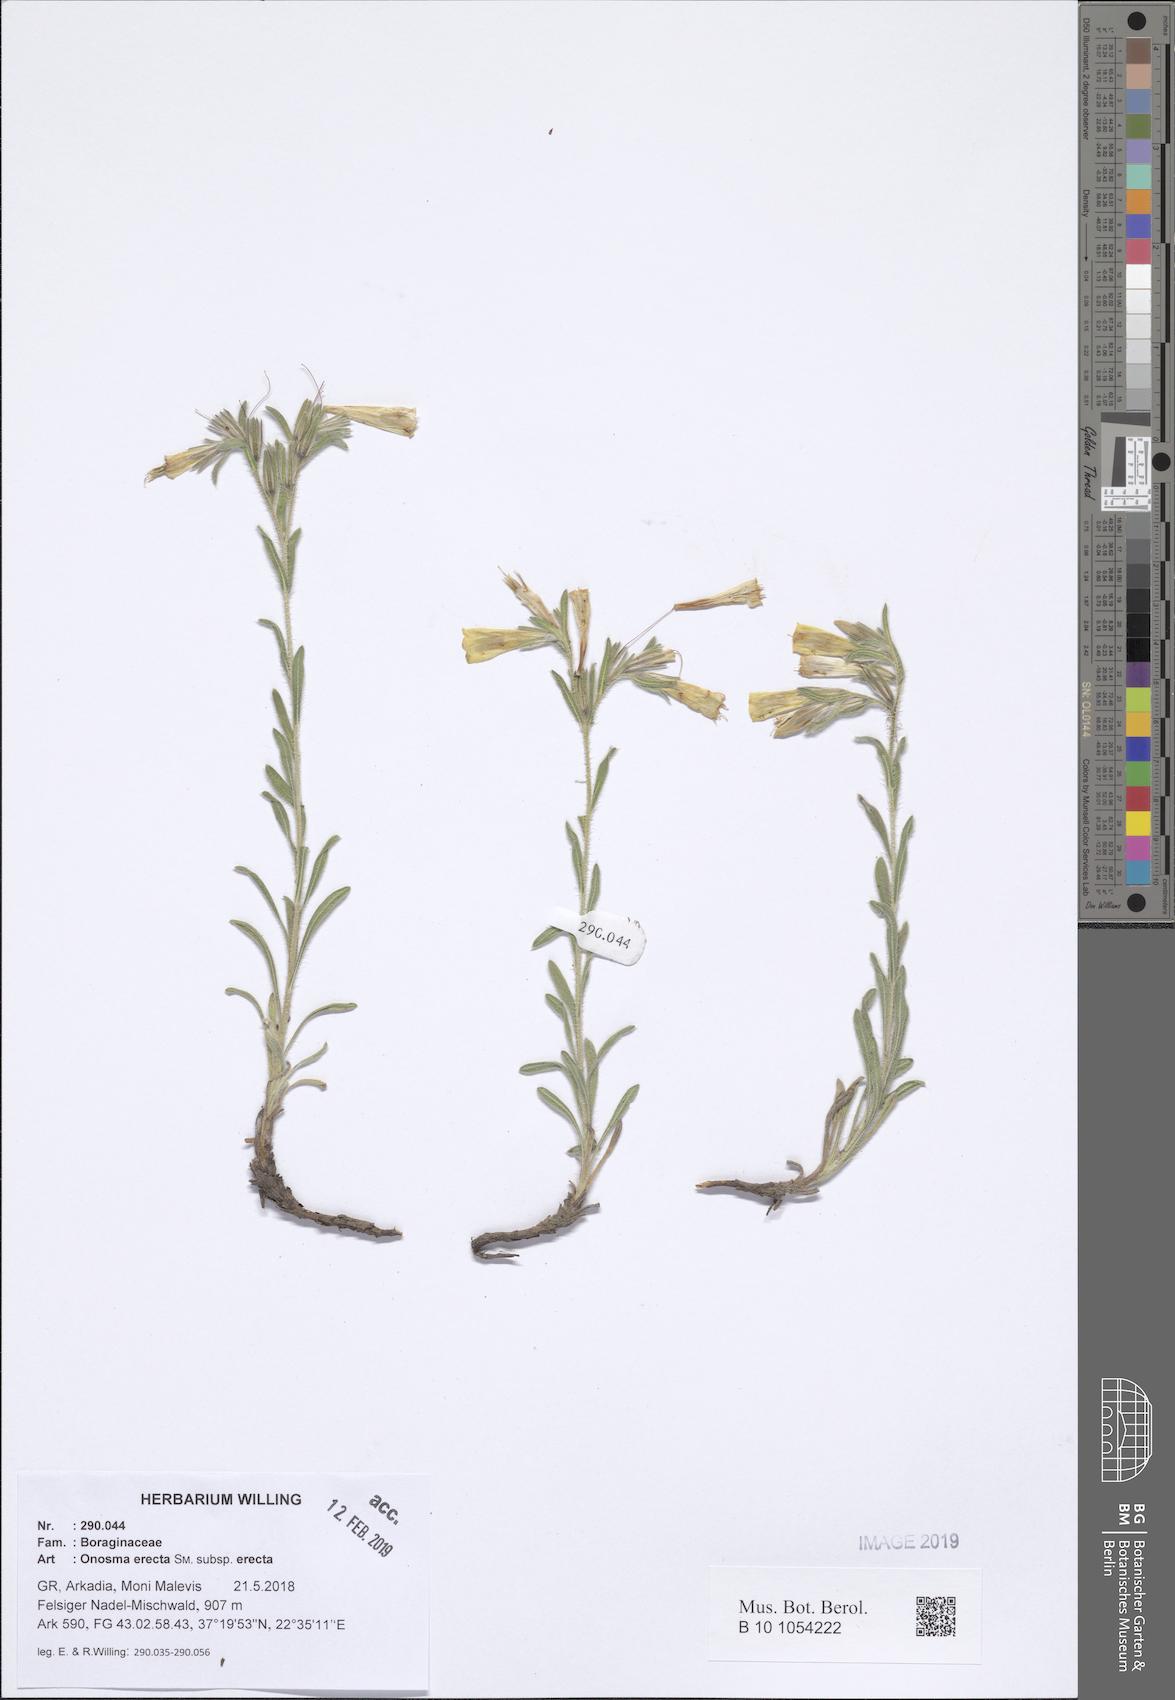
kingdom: Plantae
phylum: Tracheophyta
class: Magnoliopsida
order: Boraginales
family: Boraginaceae
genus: Onosma
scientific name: Onosma erecta
